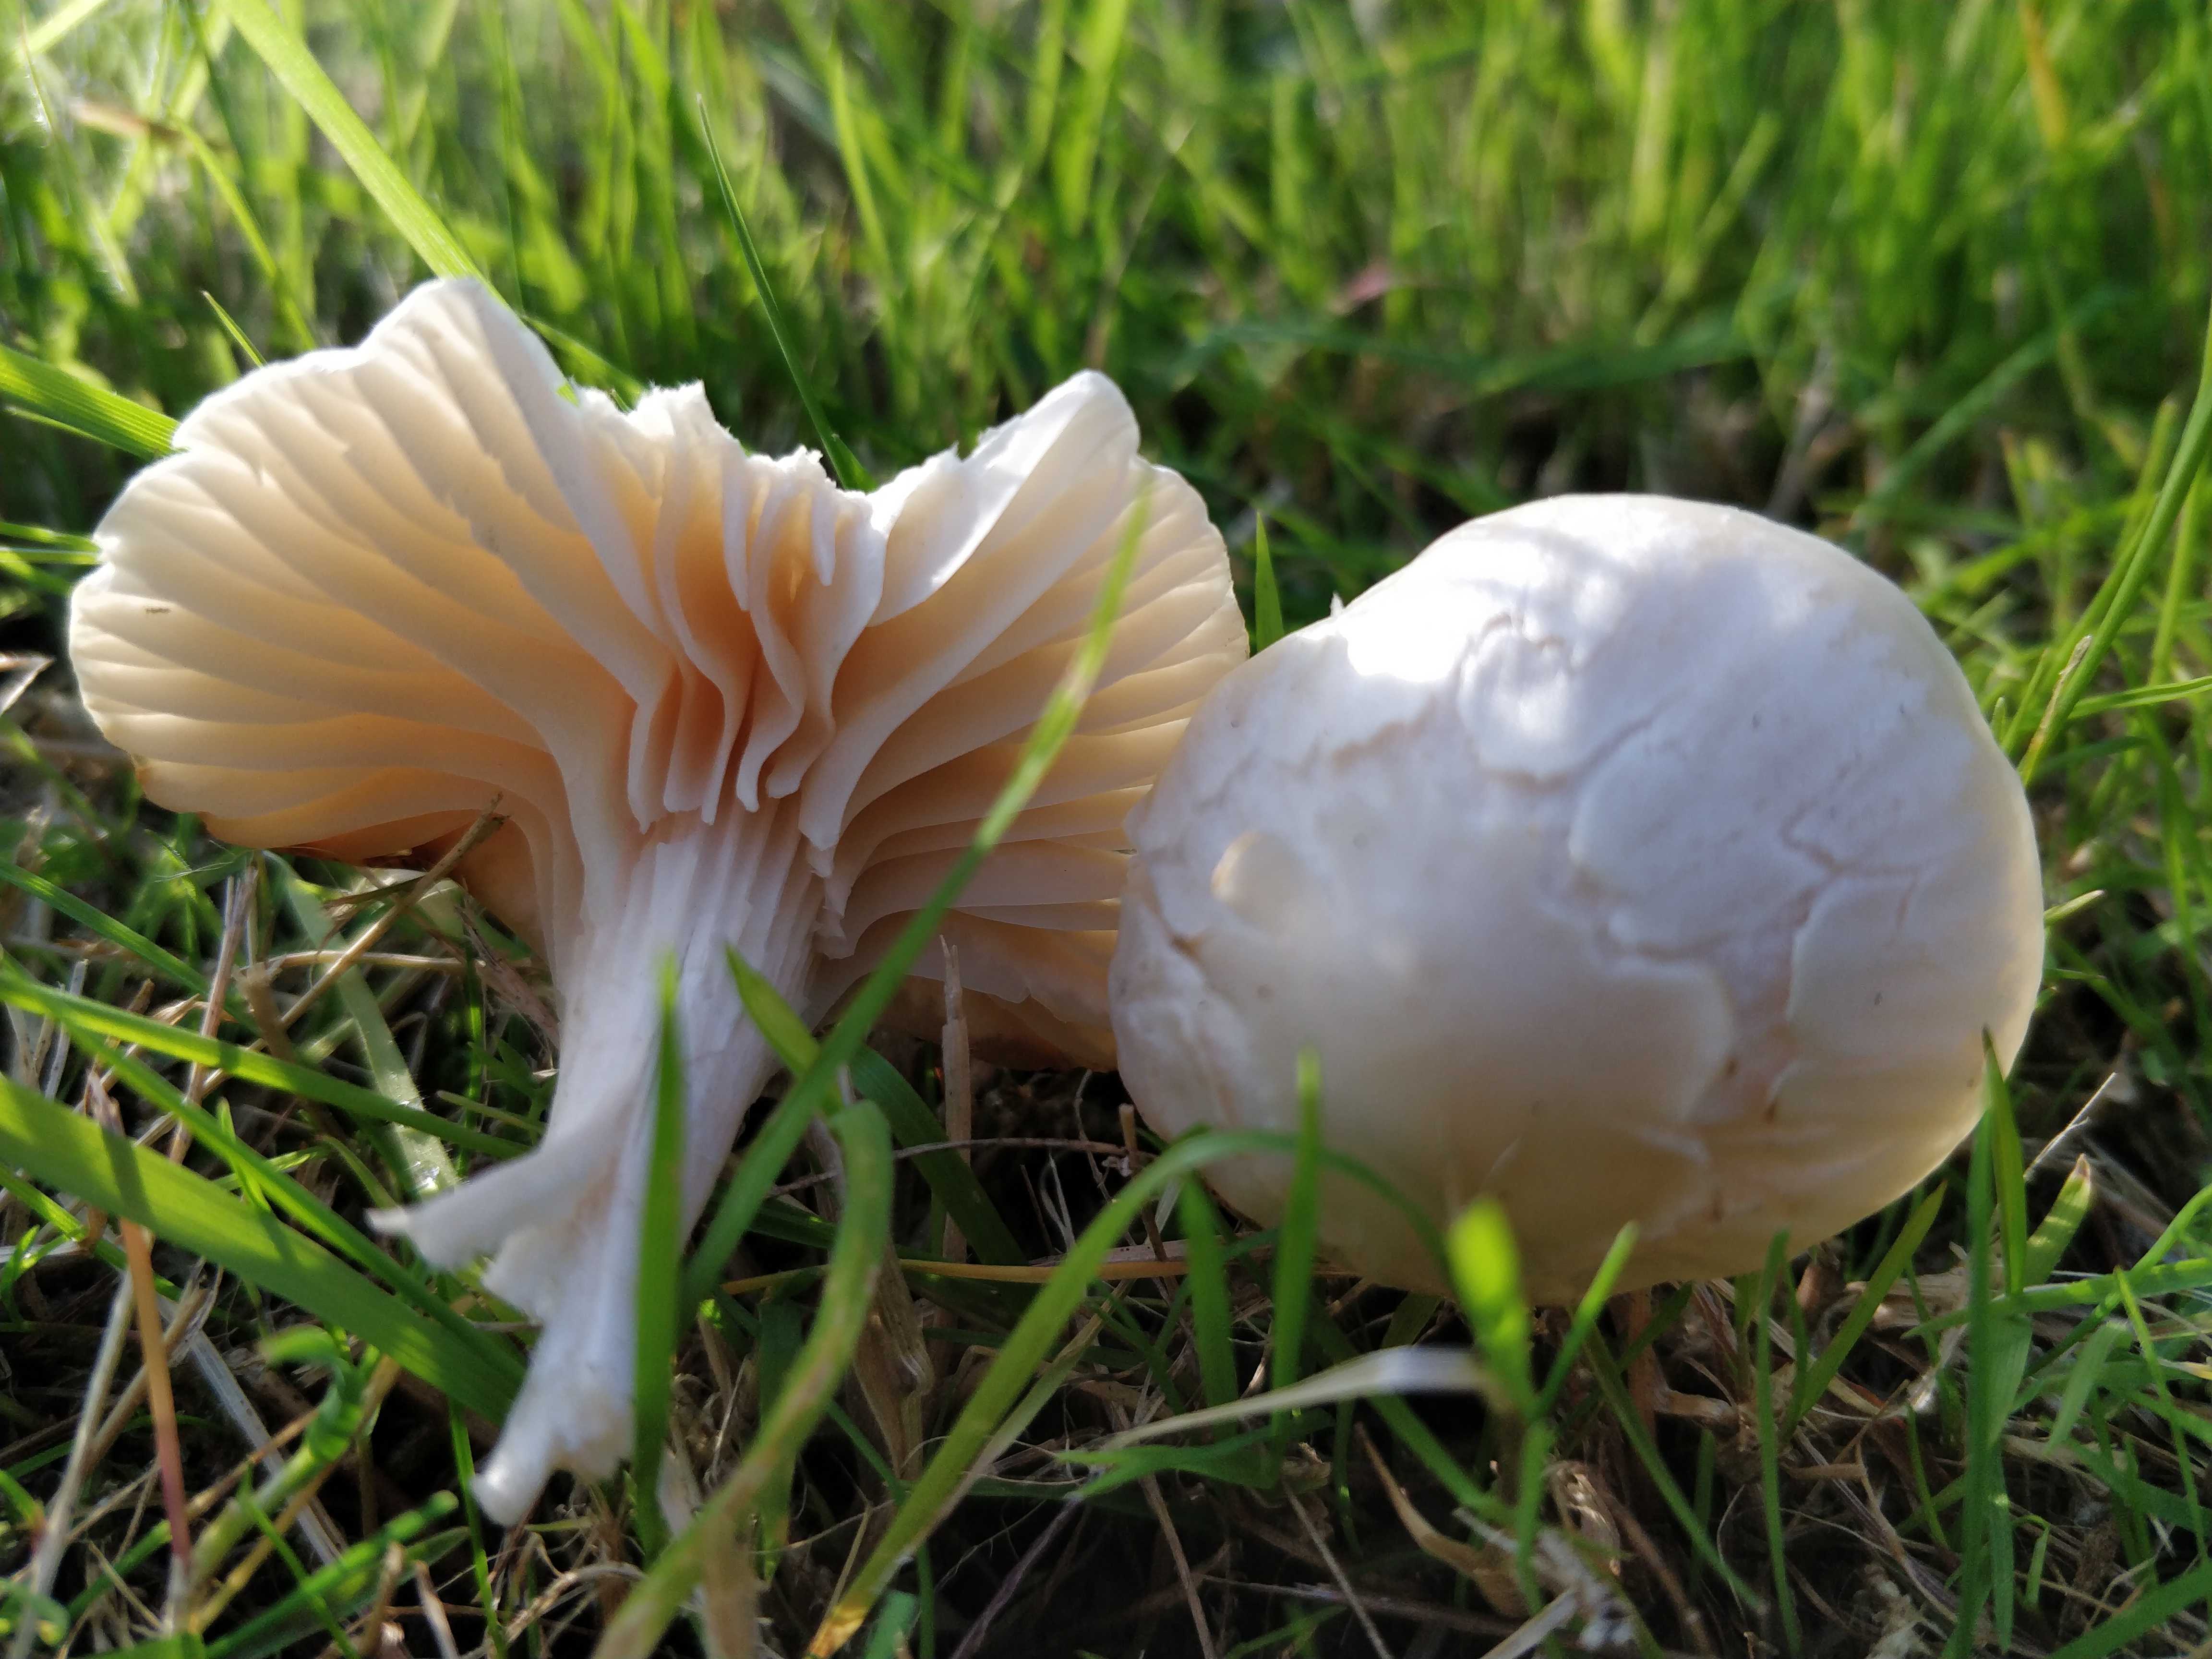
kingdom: Fungi
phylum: Basidiomycota
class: Agaricomycetes
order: Agaricales
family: Hygrophoraceae
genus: Cuphophyllus
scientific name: Cuphophyllus
